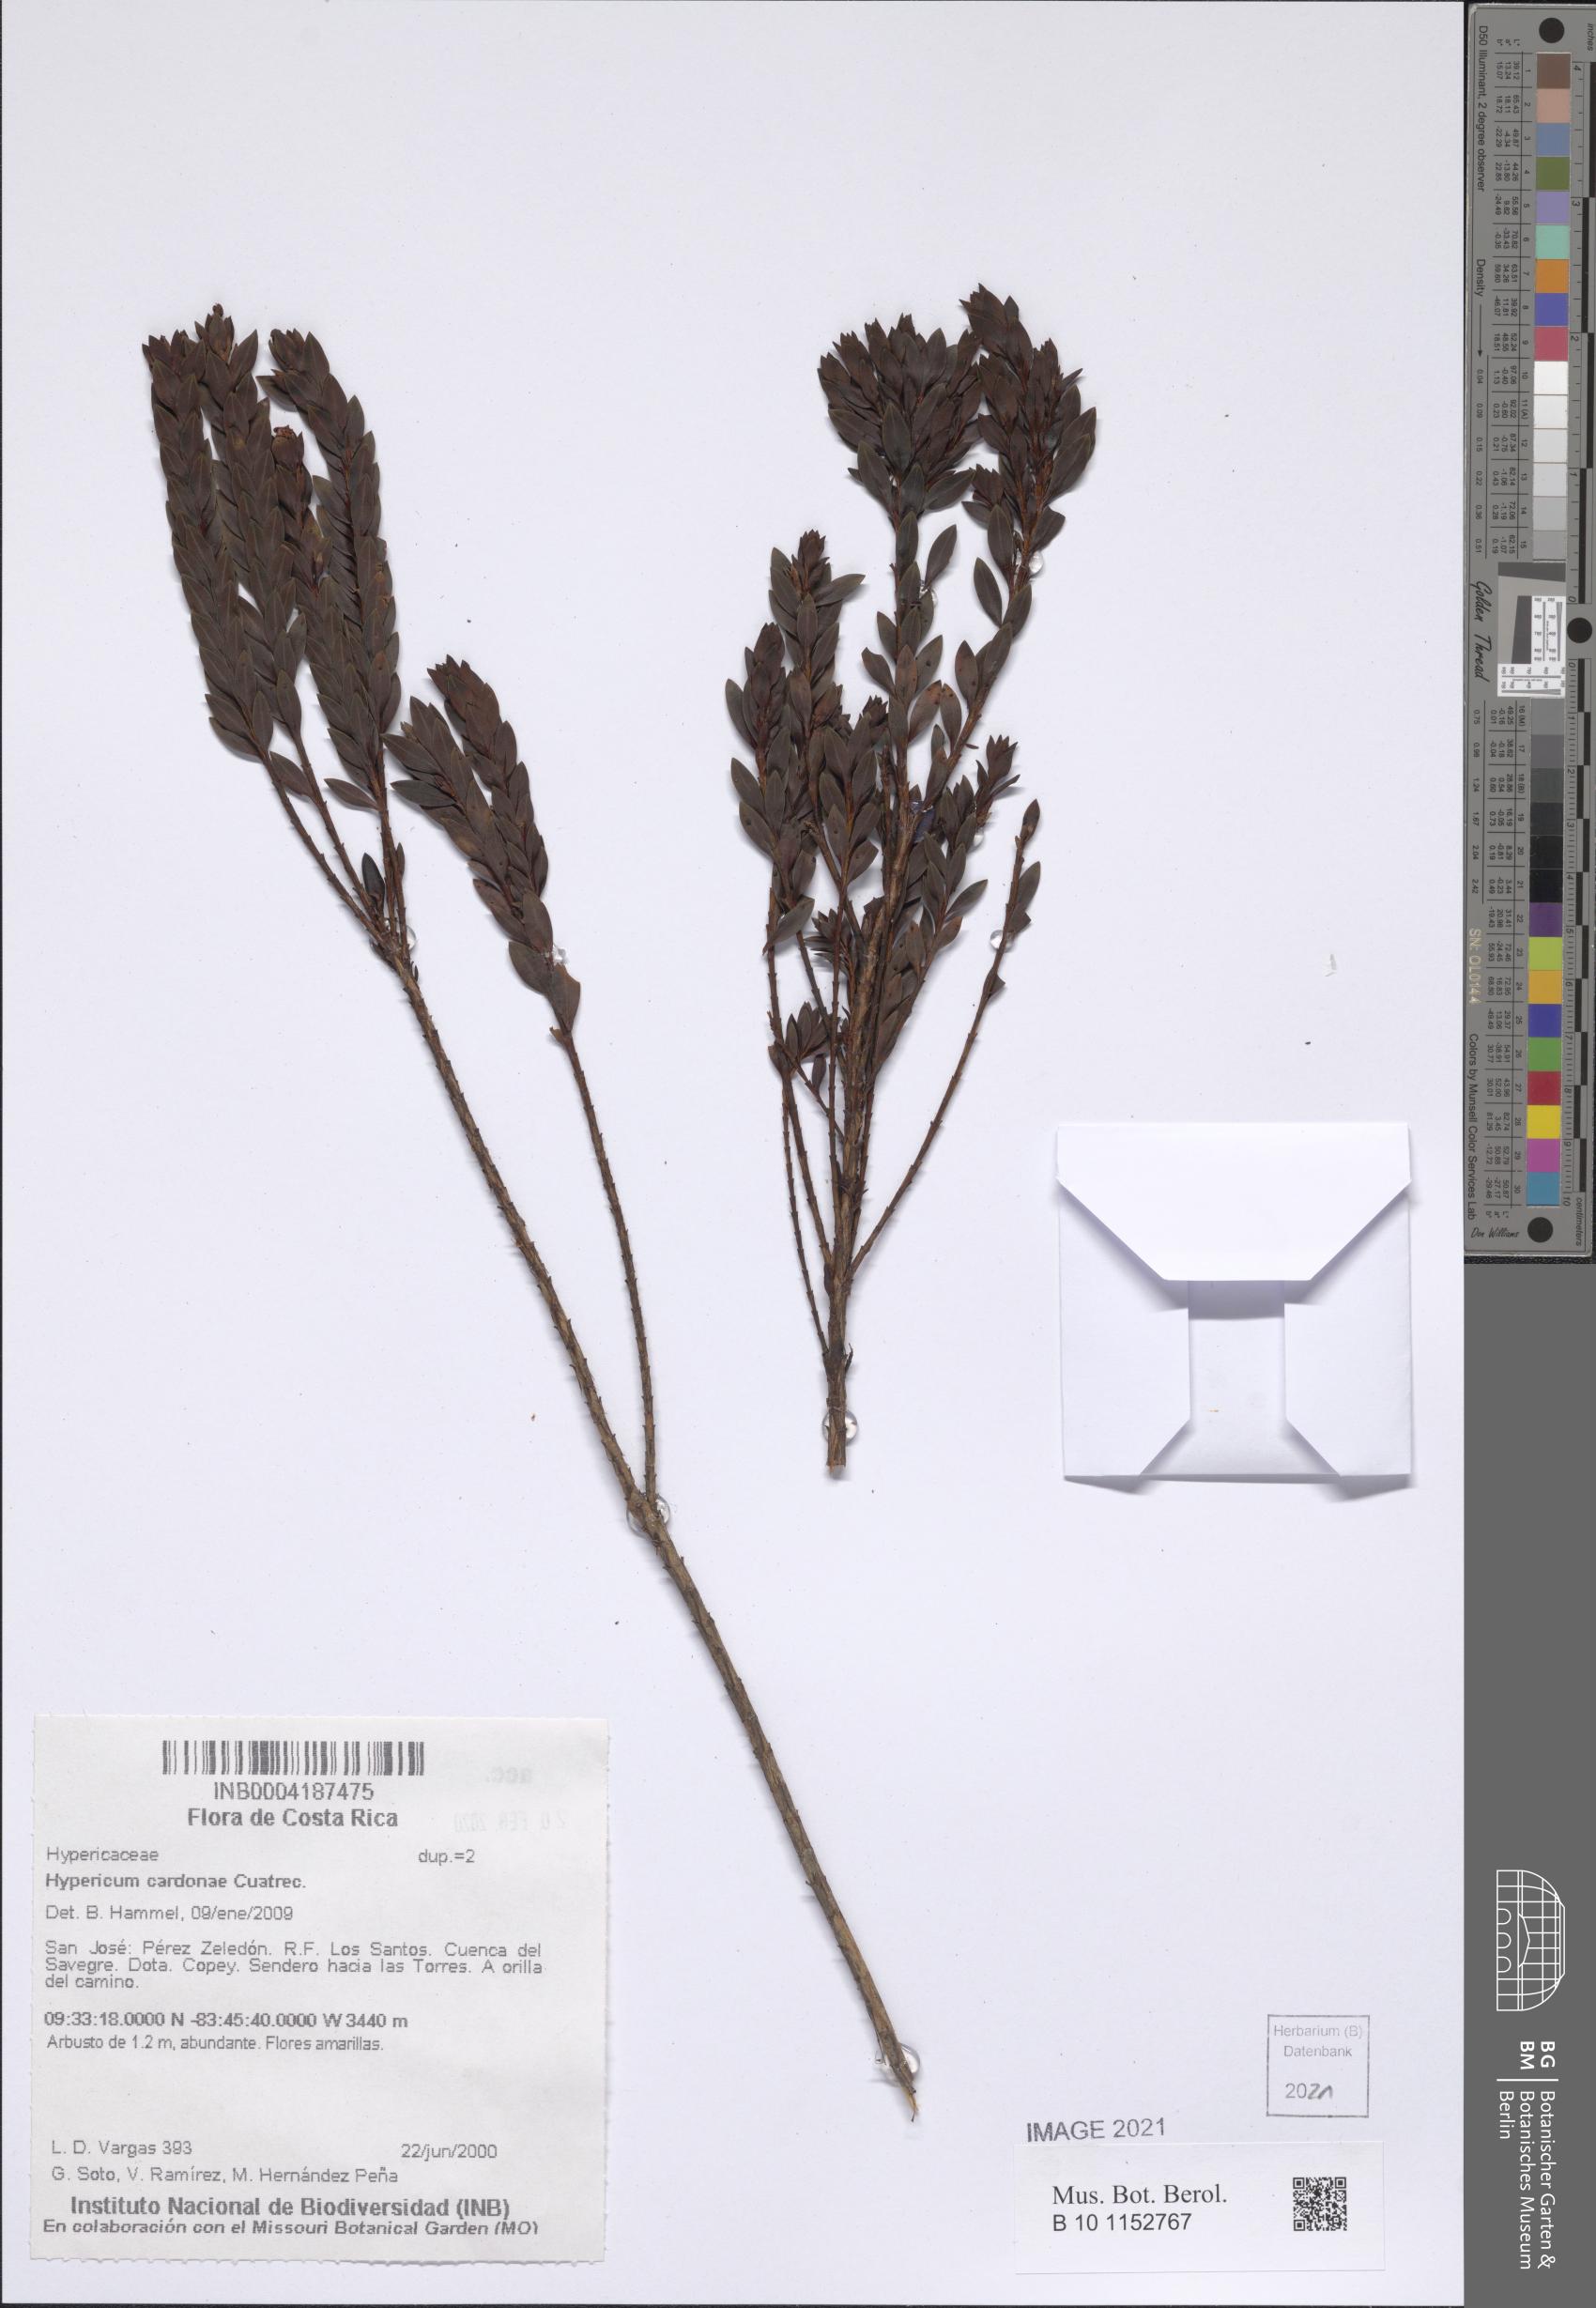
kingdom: Plantae
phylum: Tracheophyta
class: Magnoliopsida
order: Malpighiales
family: Hypericaceae
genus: Hypericum
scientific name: Hypericum cardonae
